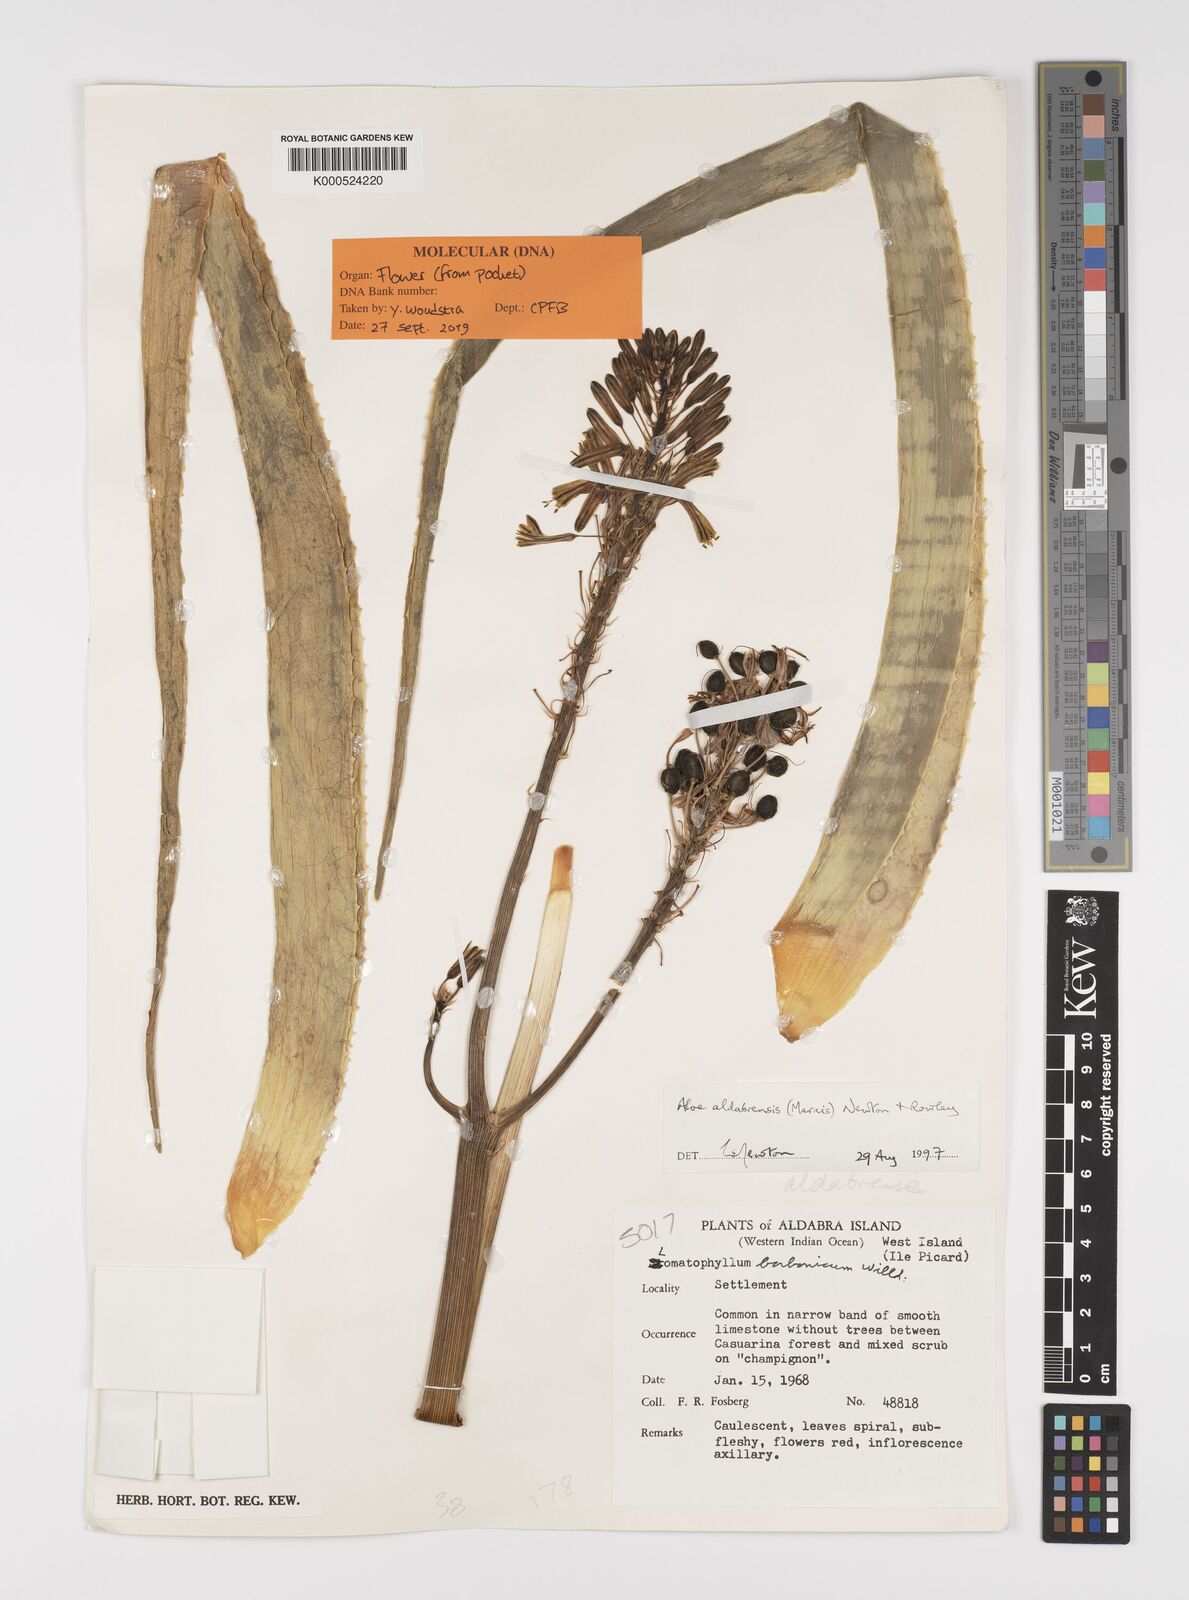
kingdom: Plantae
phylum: Tracheophyta
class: Liliopsida
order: Asparagales
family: Asphodelaceae
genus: Aloe
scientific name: Aloe aldabrensis
